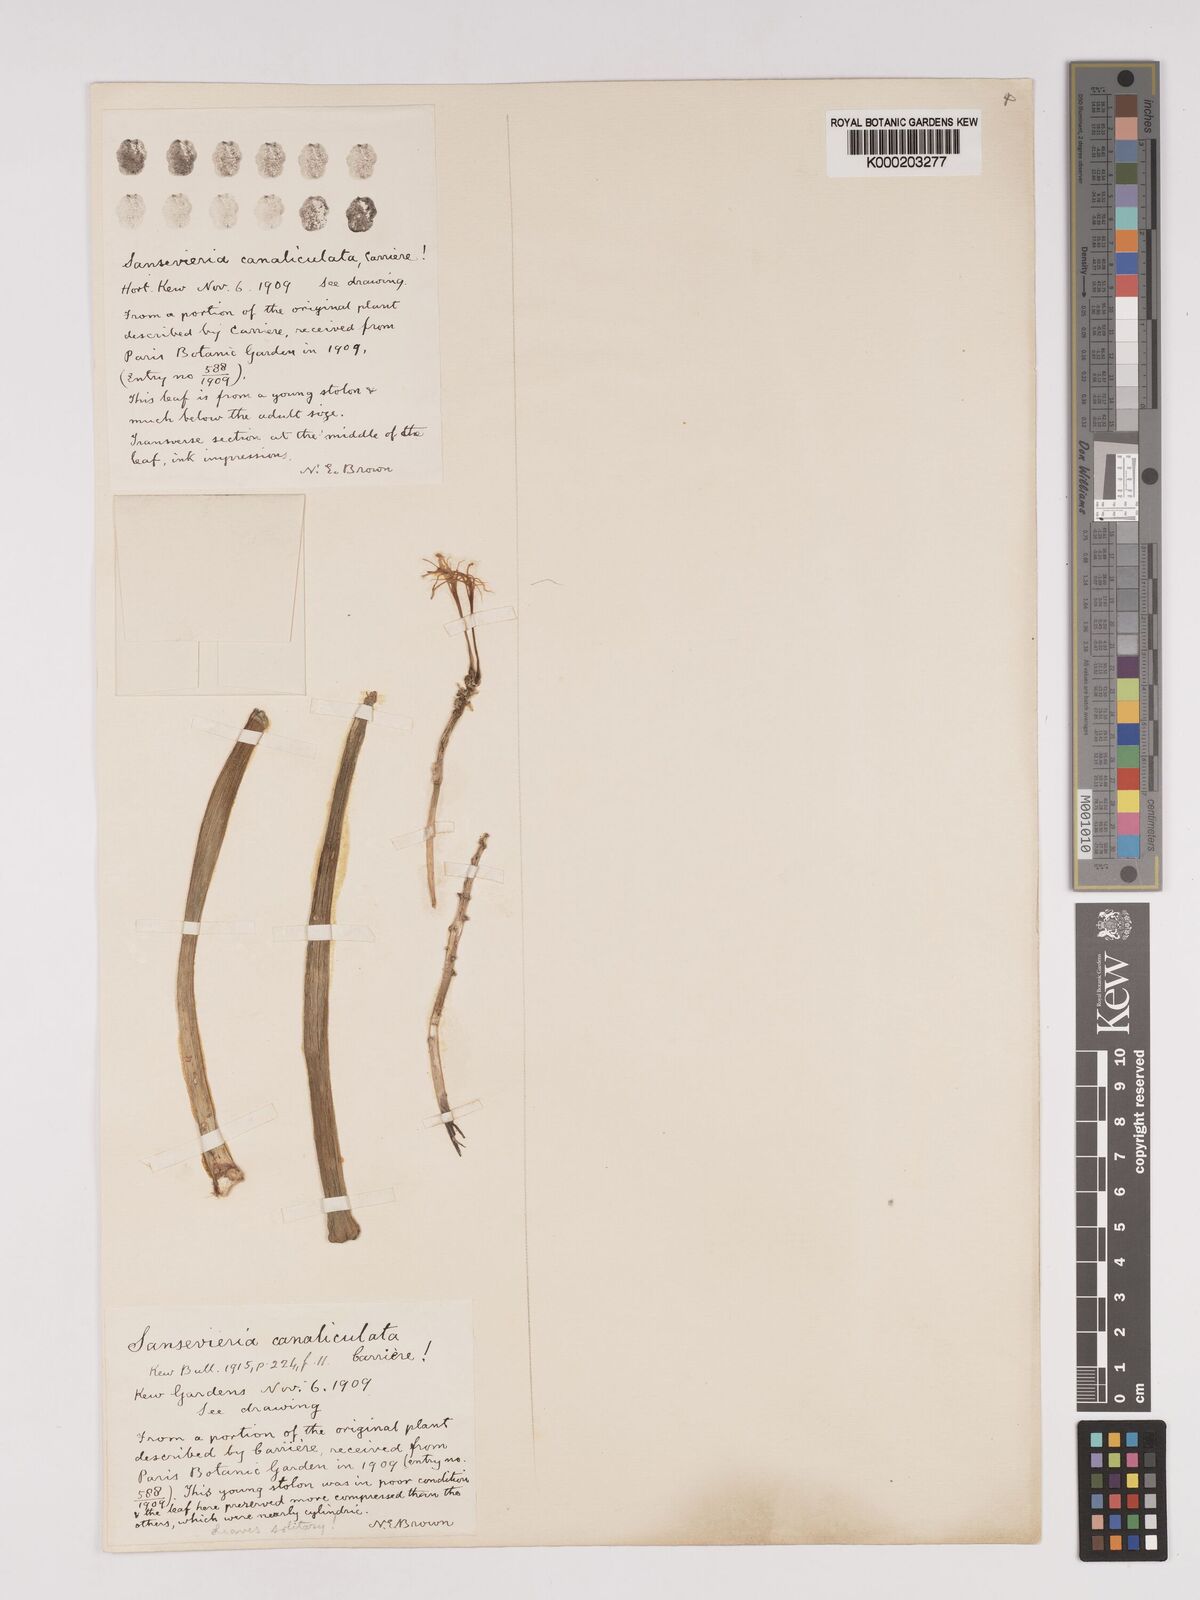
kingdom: Plantae
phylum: Tracheophyta
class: Liliopsida
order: Asparagales
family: Asparagaceae
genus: Dracaena
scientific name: Dracaena
